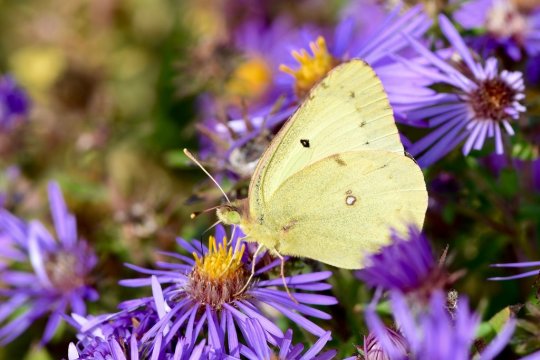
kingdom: Animalia
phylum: Arthropoda
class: Insecta
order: Lepidoptera
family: Pieridae
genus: Colias
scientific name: Colias philodice
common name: Clouded Sulphur
